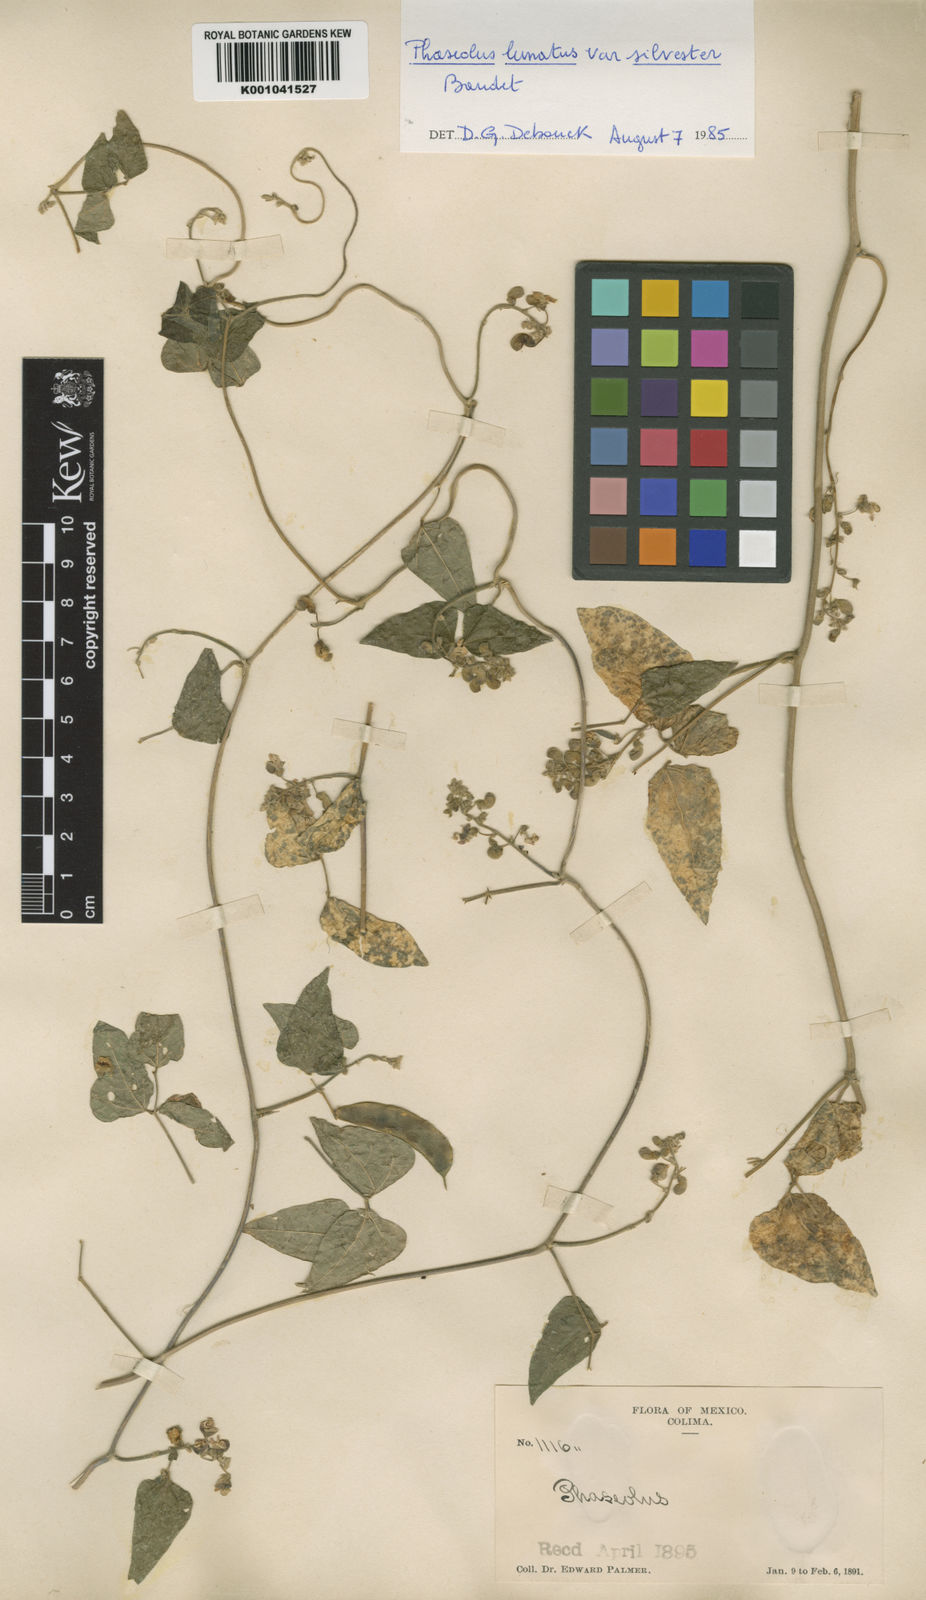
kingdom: Plantae
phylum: Tracheophyta
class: Magnoliopsida
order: Fabales
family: Fabaceae
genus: Phaseolus
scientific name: Phaseolus lunatus
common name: Sieva bean
